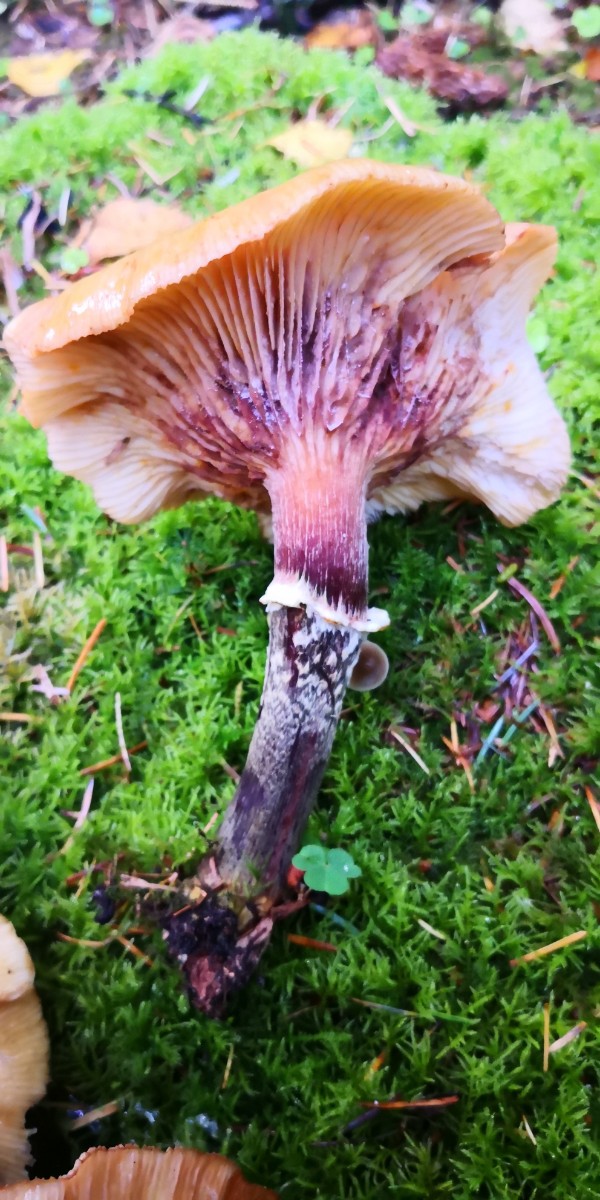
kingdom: Fungi
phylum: Basidiomycota
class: Agaricomycetes
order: Agaricales
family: Physalacriaceae
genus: Armillaria
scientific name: Armillaria ostoyae
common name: mørk honningsvamp
